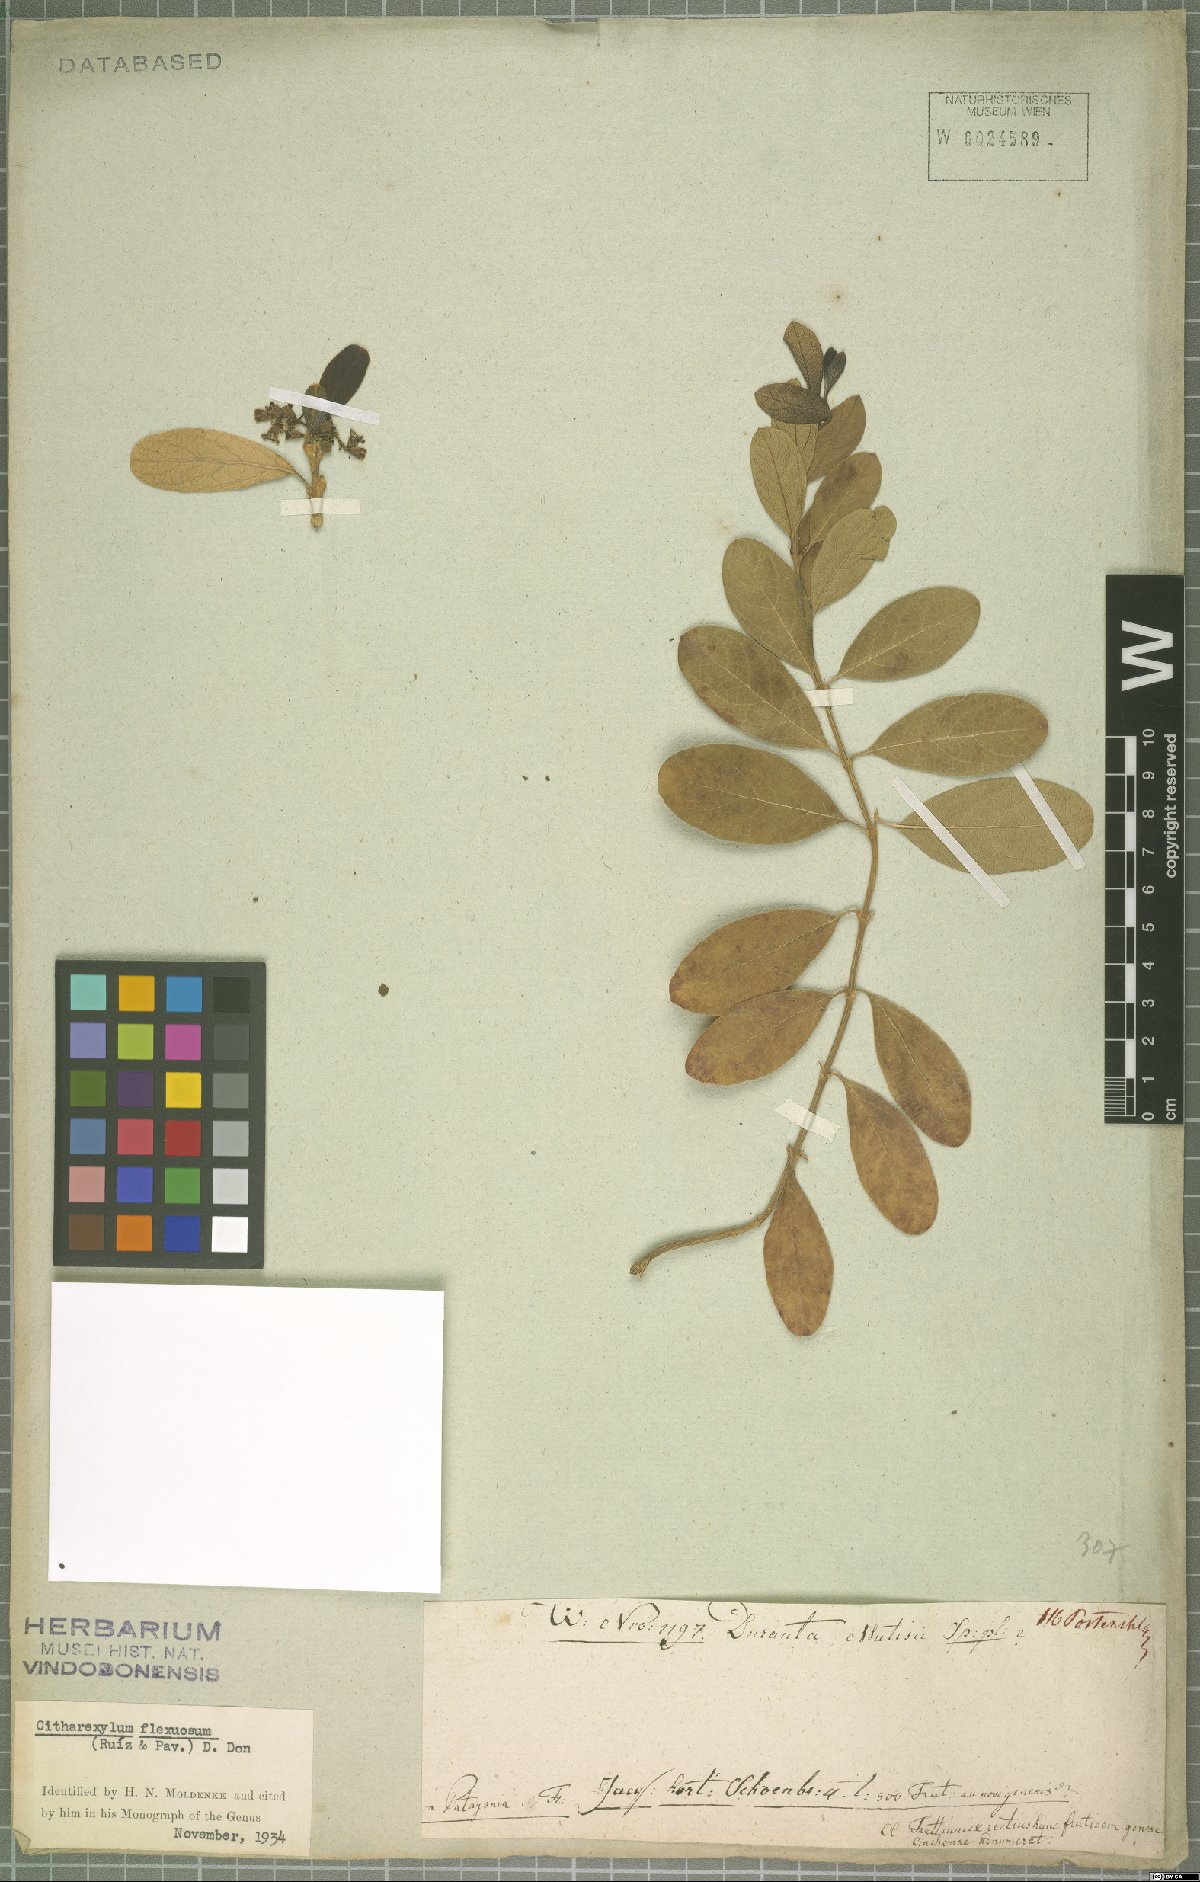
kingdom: Plantae
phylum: Tracheophyta
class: Magnoliopsida
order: Lamiales
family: Verbenaceae
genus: Citharexylum
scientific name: Citharexylum flexuosum
